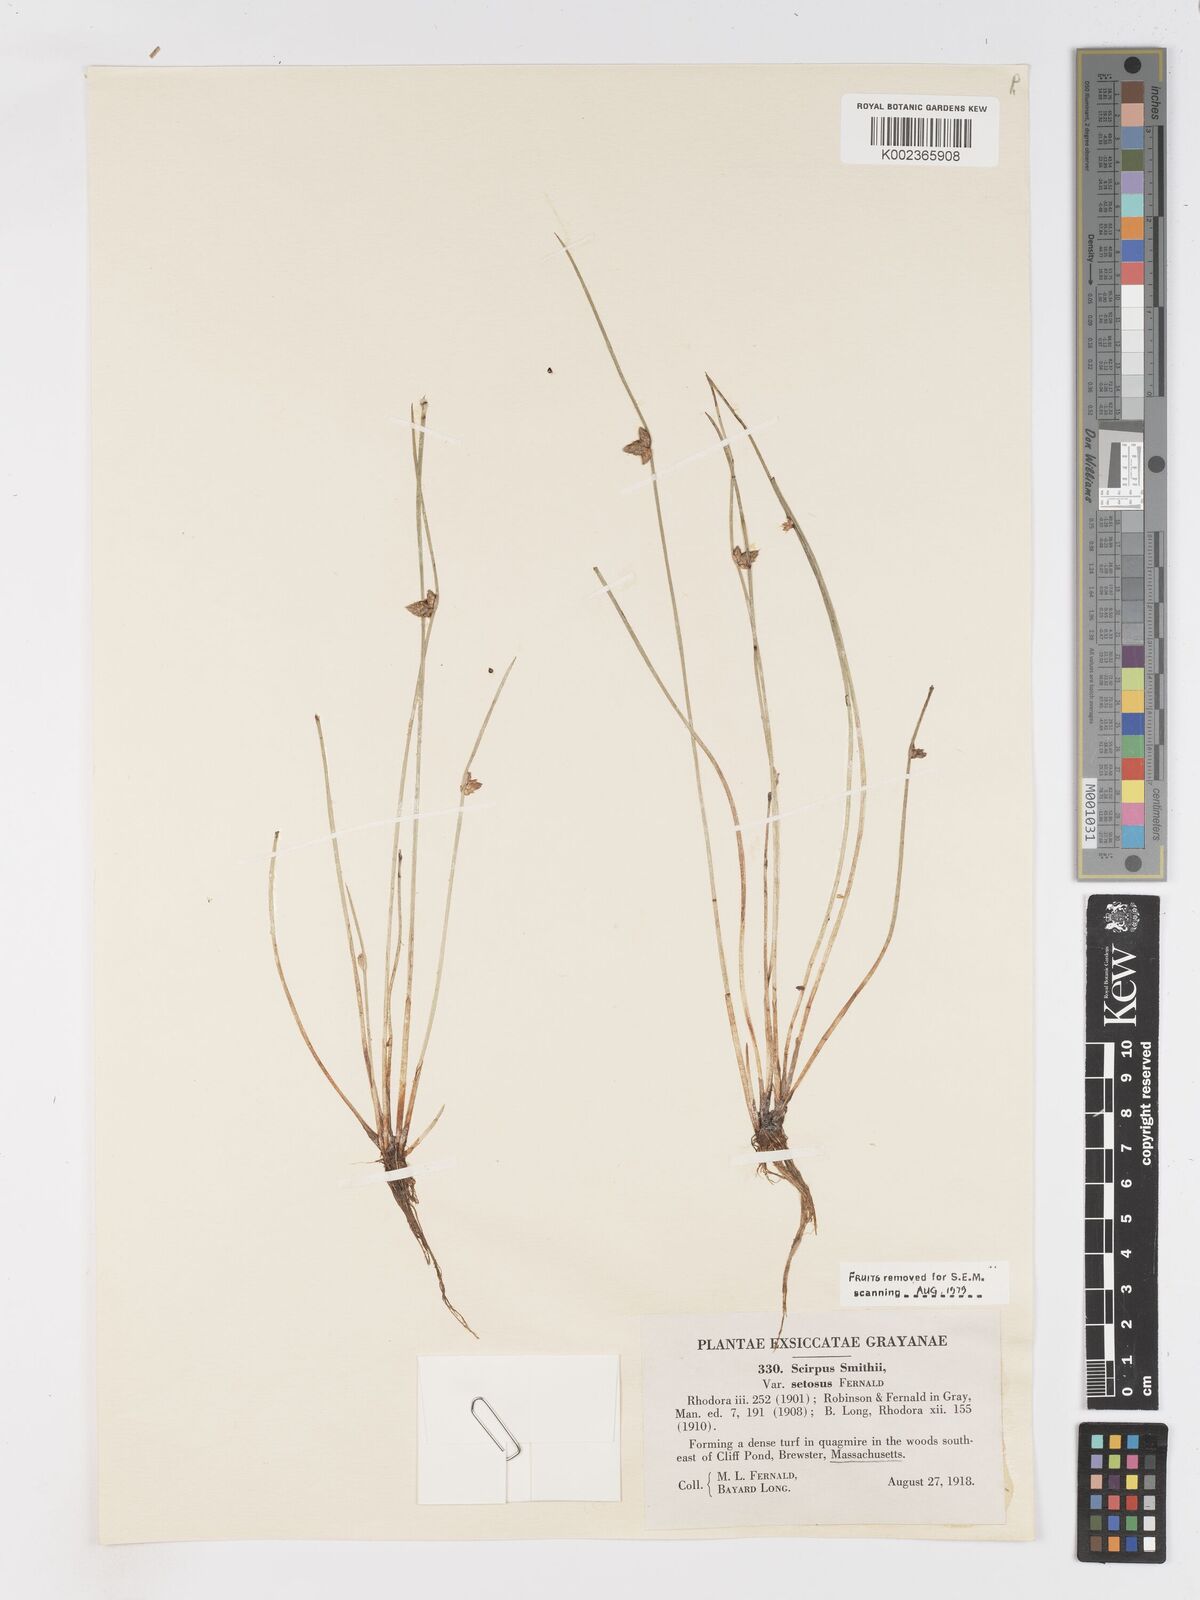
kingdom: Plantae
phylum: Tracheophyta
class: Liliopsida
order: Poales
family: Cyperaceae
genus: Schoenoplectiella
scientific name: Schoenoplectiella smithii
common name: Smith's bulrush
